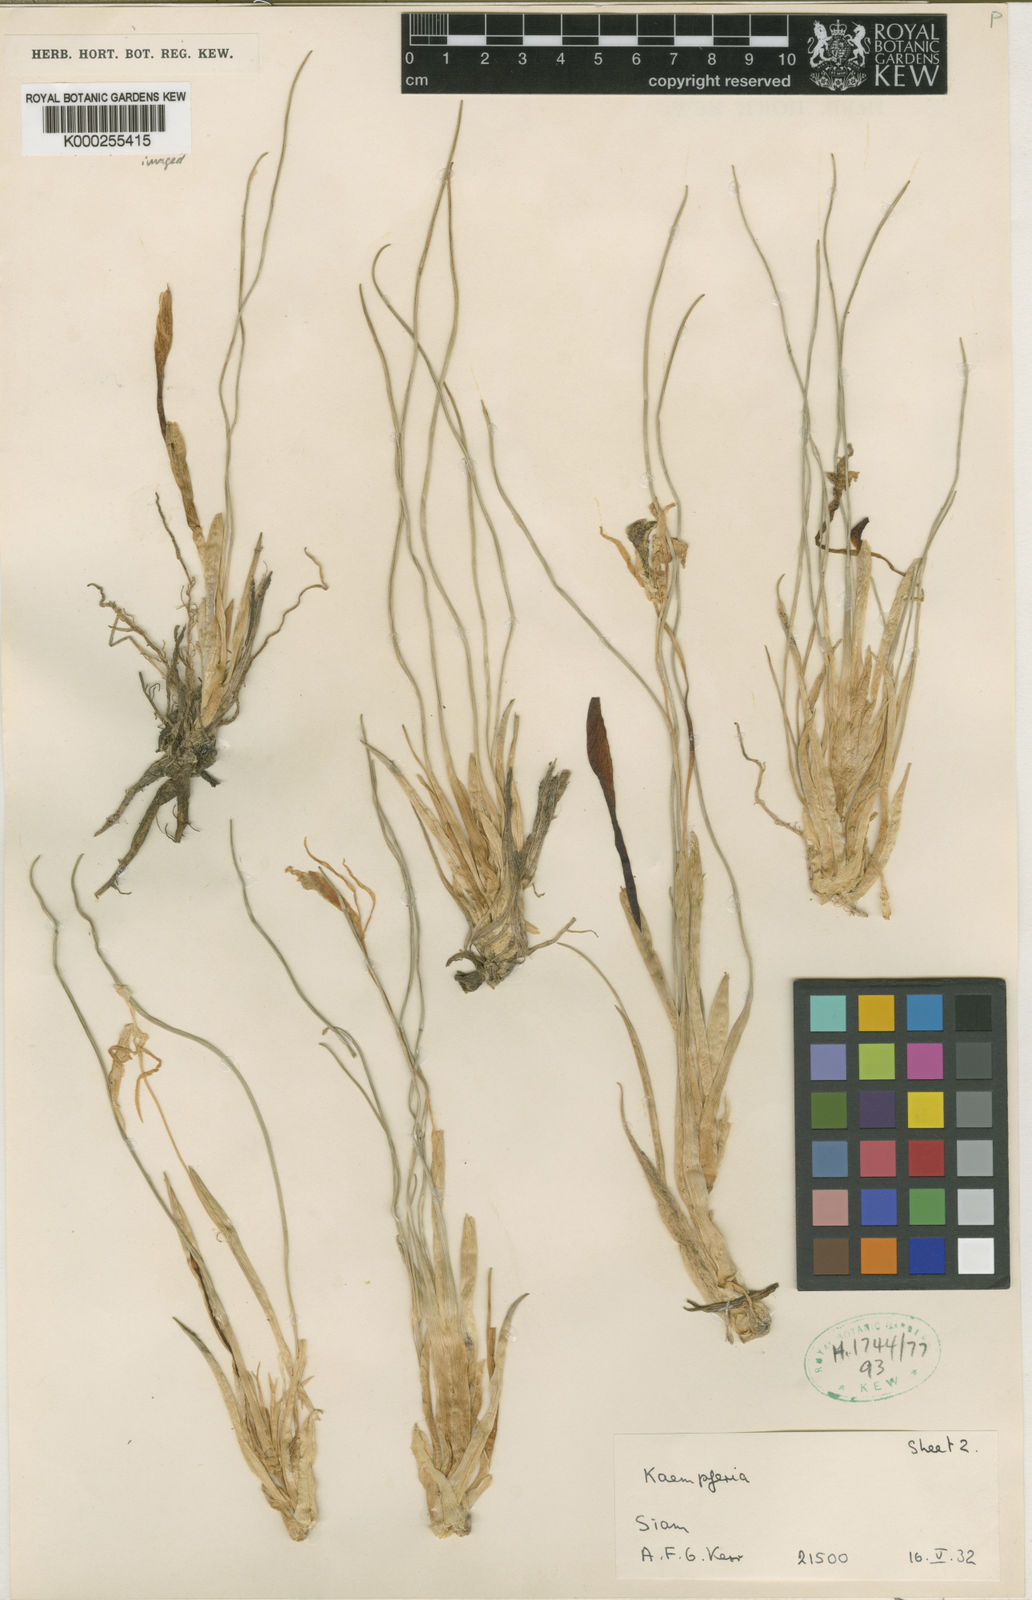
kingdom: Plantae
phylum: Tracheophyta
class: Liliopsida
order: Zingiberales
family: Zingiberaceae
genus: Kaempferia
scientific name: Kaempferia filifolia
